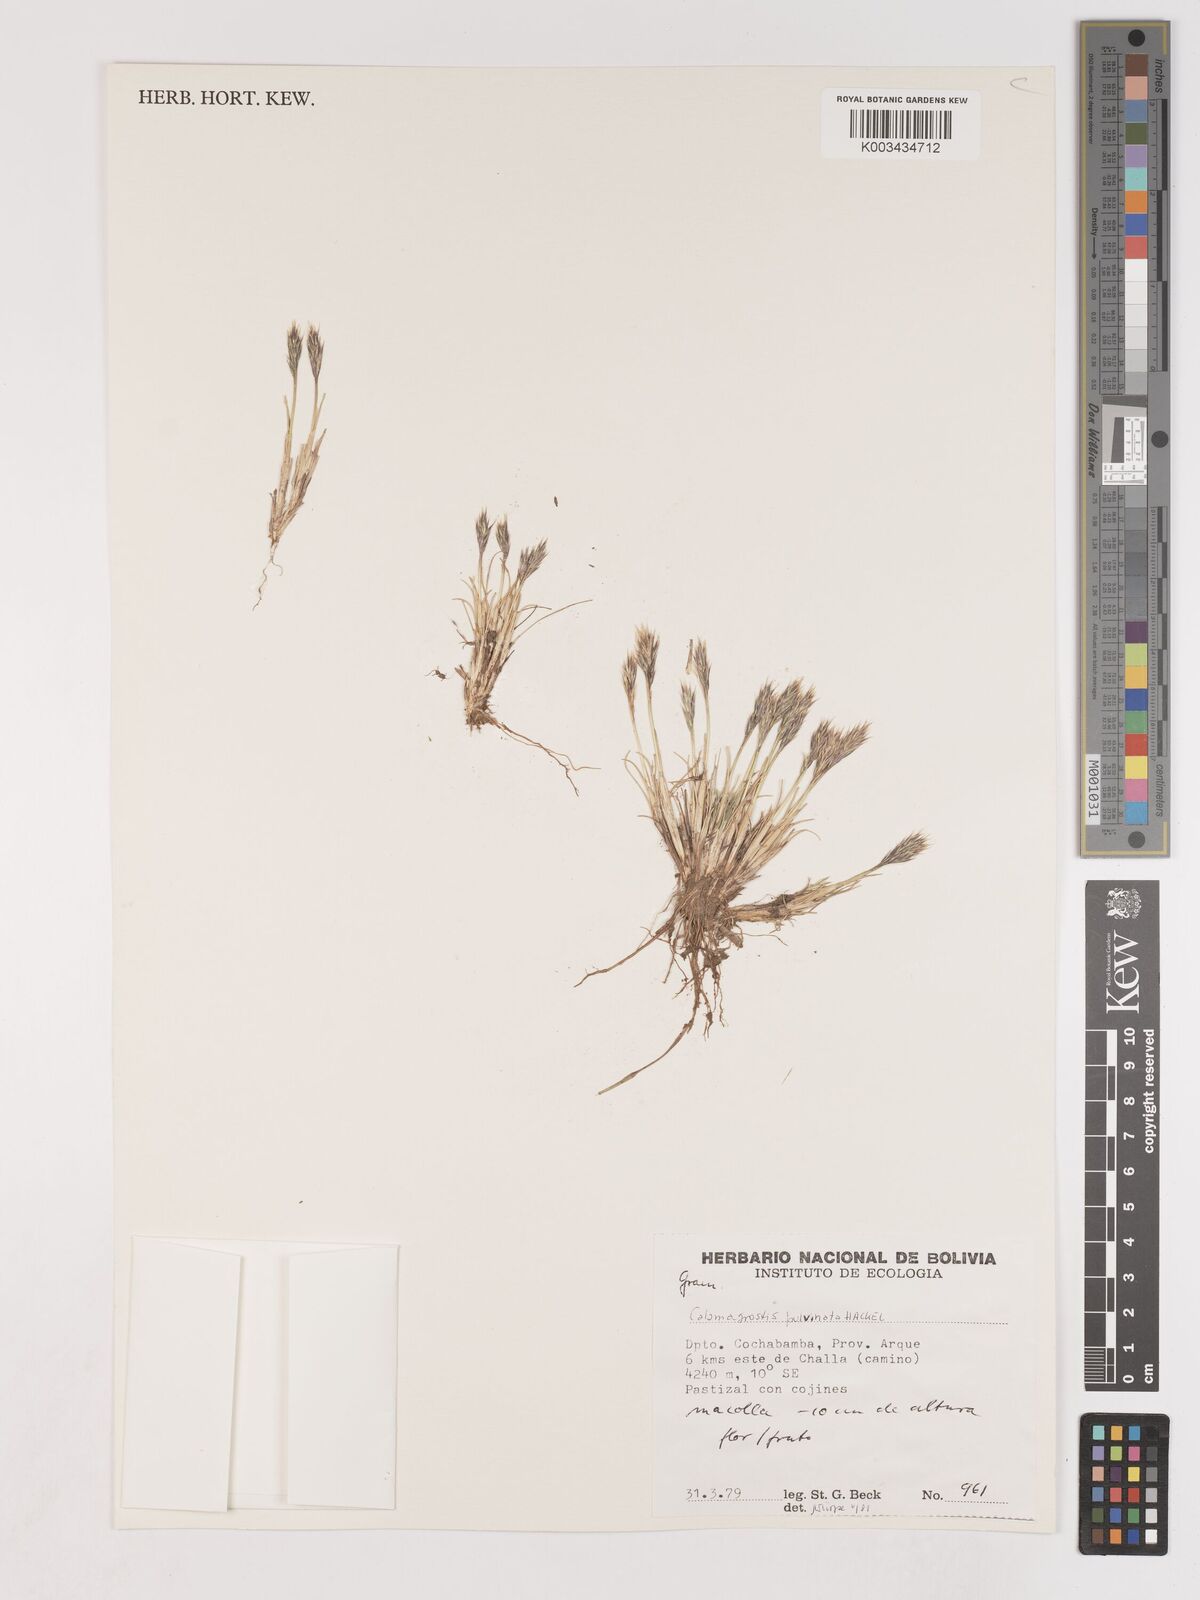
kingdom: Plantae
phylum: Tracheophyta
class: Liliopsida
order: Poales
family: Poaceae
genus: Cinnagrostis
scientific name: Cinnagrostis vicunarum
